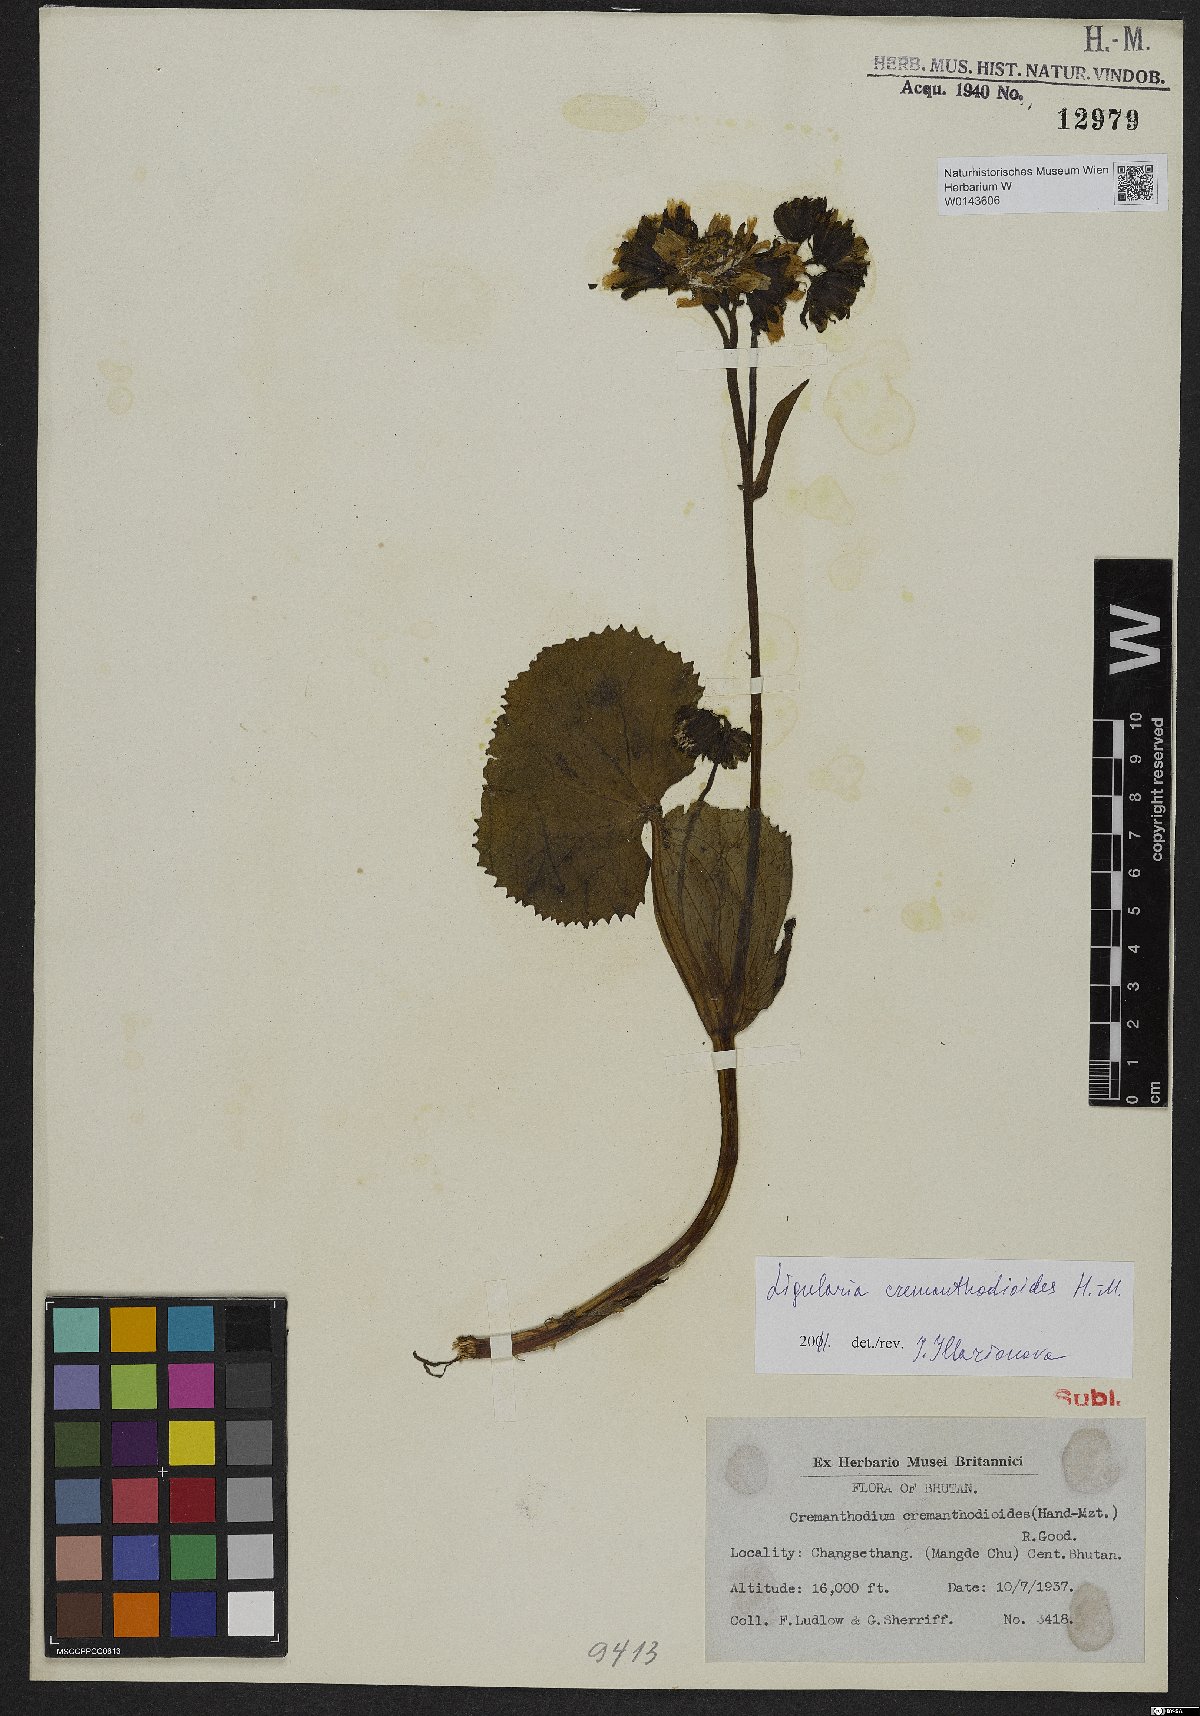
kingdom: Plantae
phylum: Tracheophyta
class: Magnoliopsida
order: Asterales
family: Asteraceae
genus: Ligularia
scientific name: Ligularia cremanthodioides
